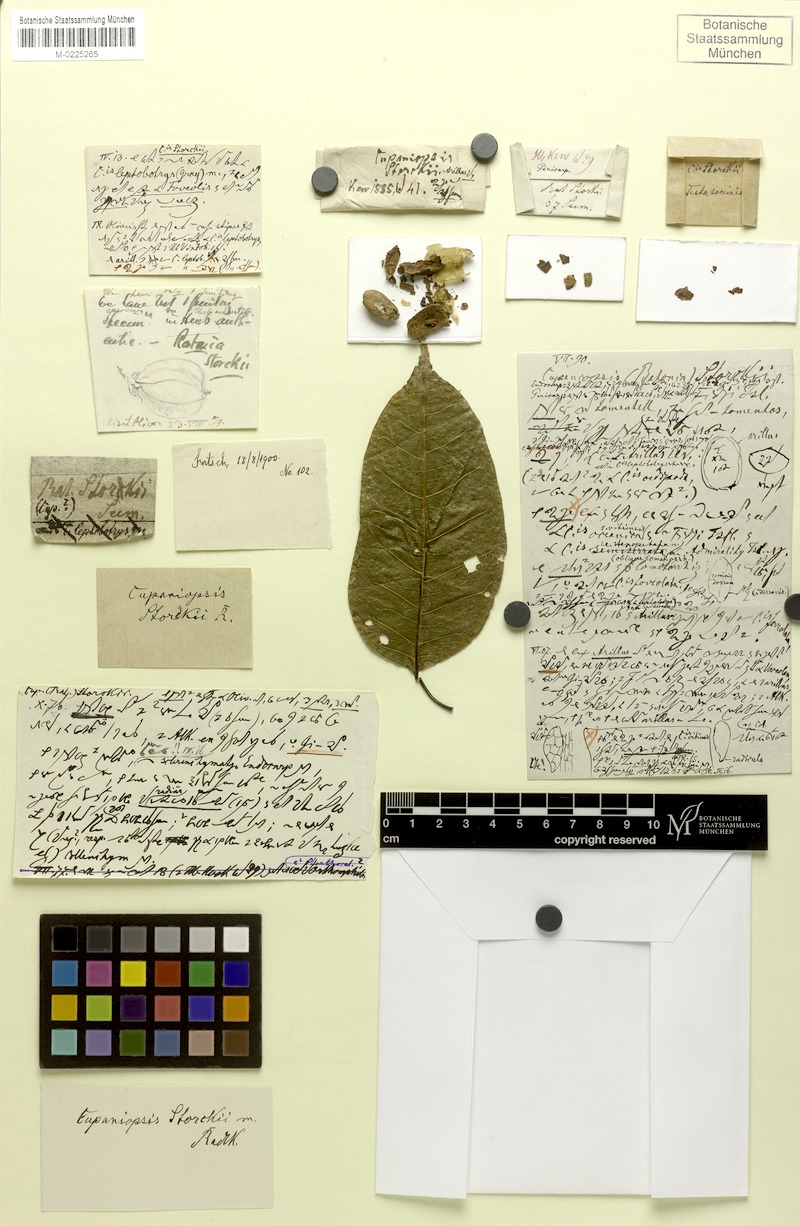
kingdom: Plantae
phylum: Tracheophyta
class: Magnoliopsida
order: Sapindales
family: Sapindaceae
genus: Cupaniopsis
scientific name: Cupaniopsis leptobotrys
